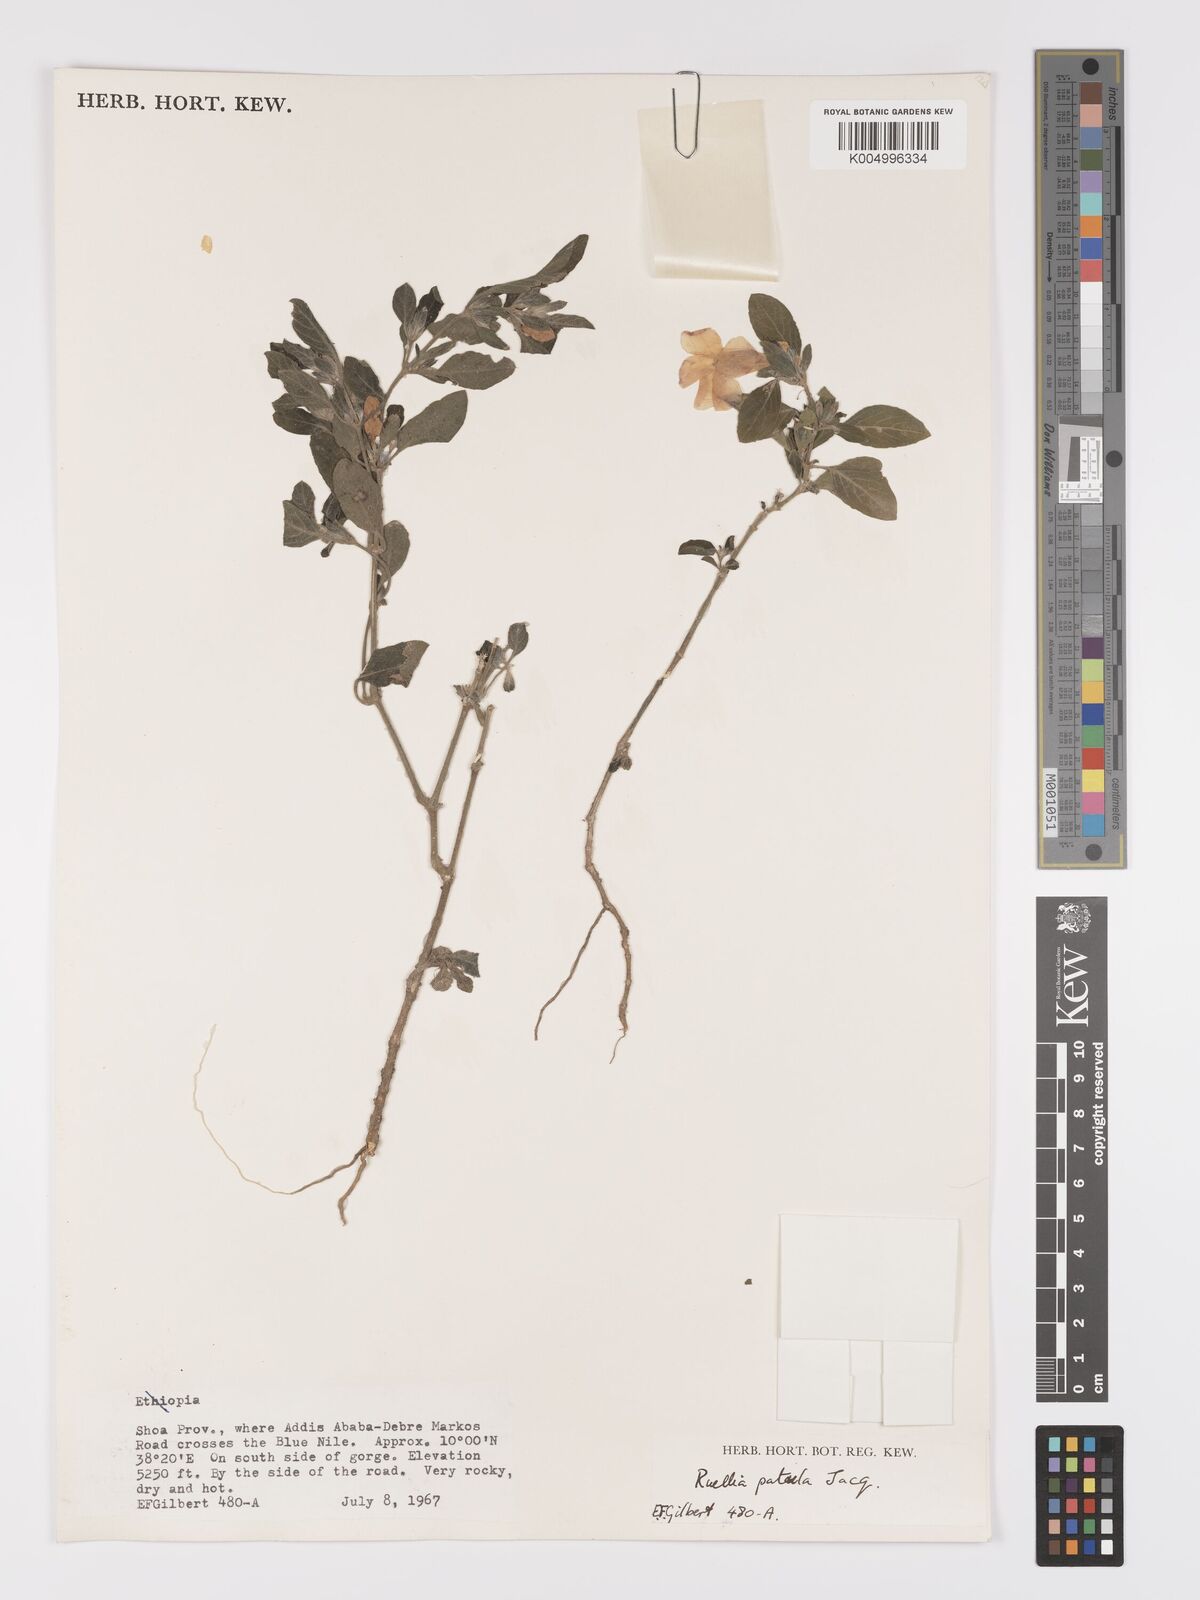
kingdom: Plantae
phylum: Tracheophyta
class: Magnoliopsida
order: Lamiales
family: Acanthaceae
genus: Ruellia
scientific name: Ruellia patula
